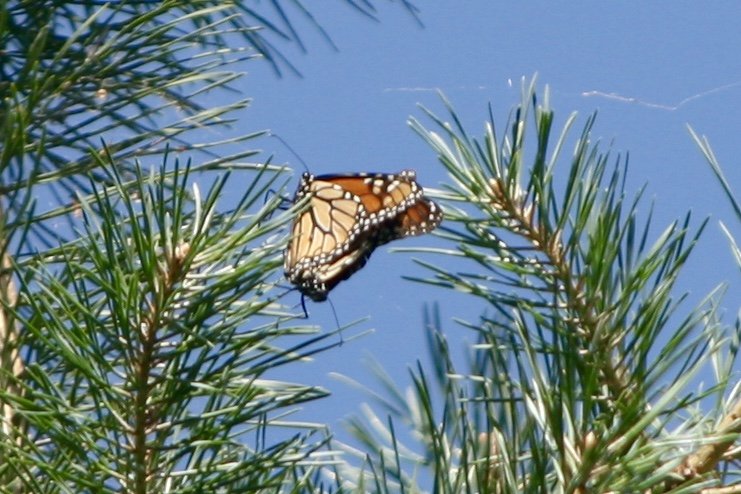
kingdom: Animalia
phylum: Arthropoda
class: Insecta
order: Lepidoptera
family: Nymphalidae
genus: Danaus
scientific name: Danaus plexippus
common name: Monarch
